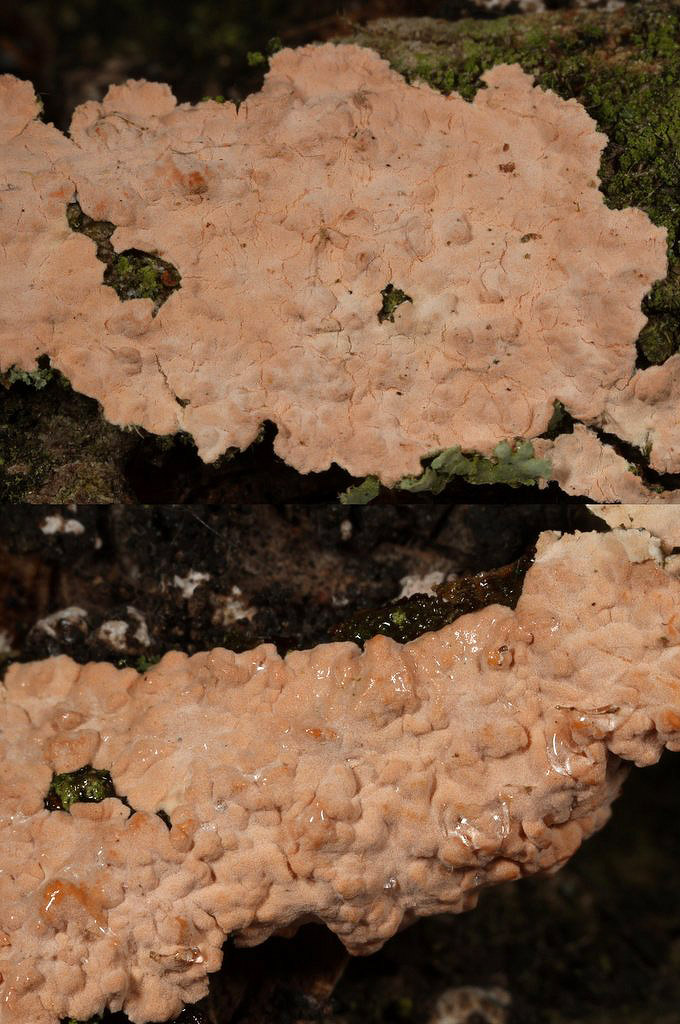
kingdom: Fungi
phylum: Basidiomycota
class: Agaricomycetes
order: Corticiales
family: Corticiaceae
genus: Corticium
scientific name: Corticium roseum
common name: rosa barkskind
